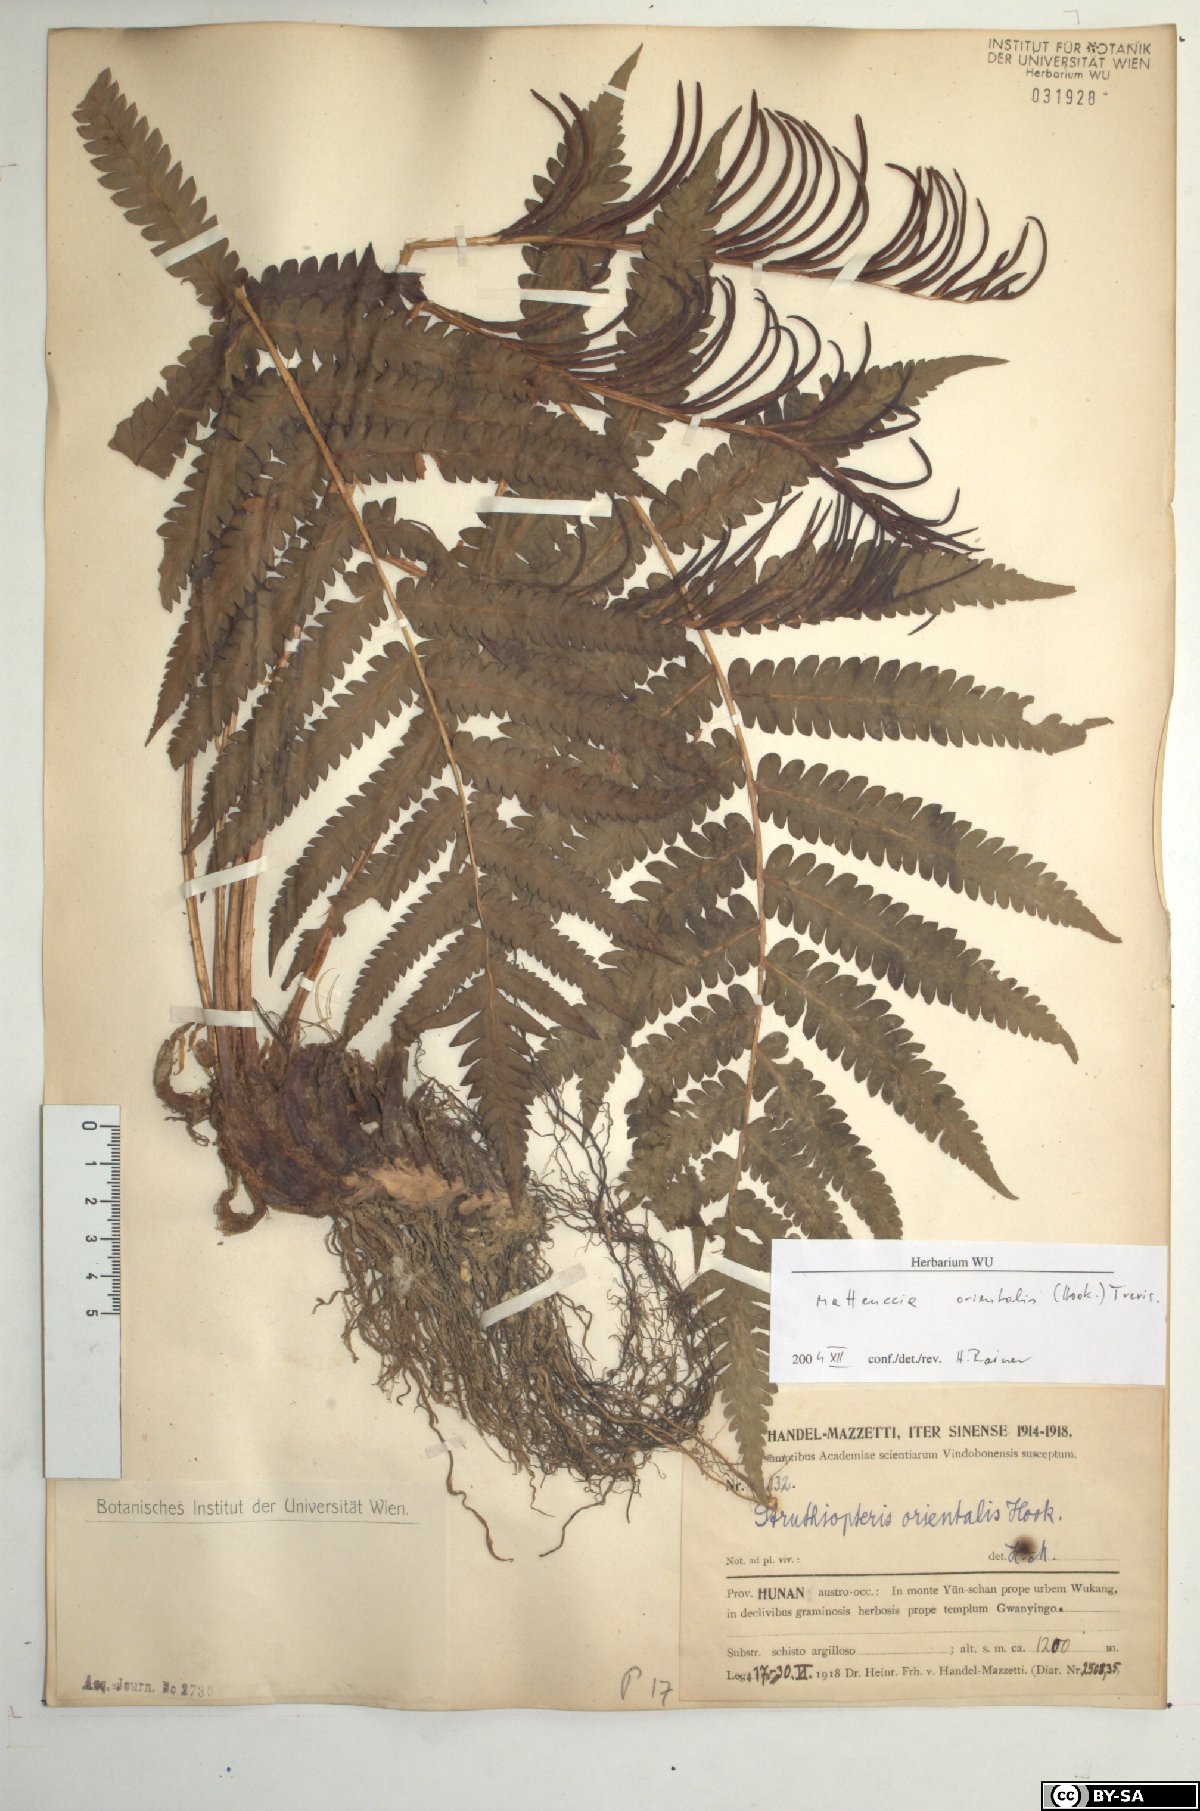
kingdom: Plantae
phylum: Tracheophyta
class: Polypodiopsida
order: Polypodiales
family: Onocleaceae
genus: Pentarhizidium
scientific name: Pentarhizidium orientale
